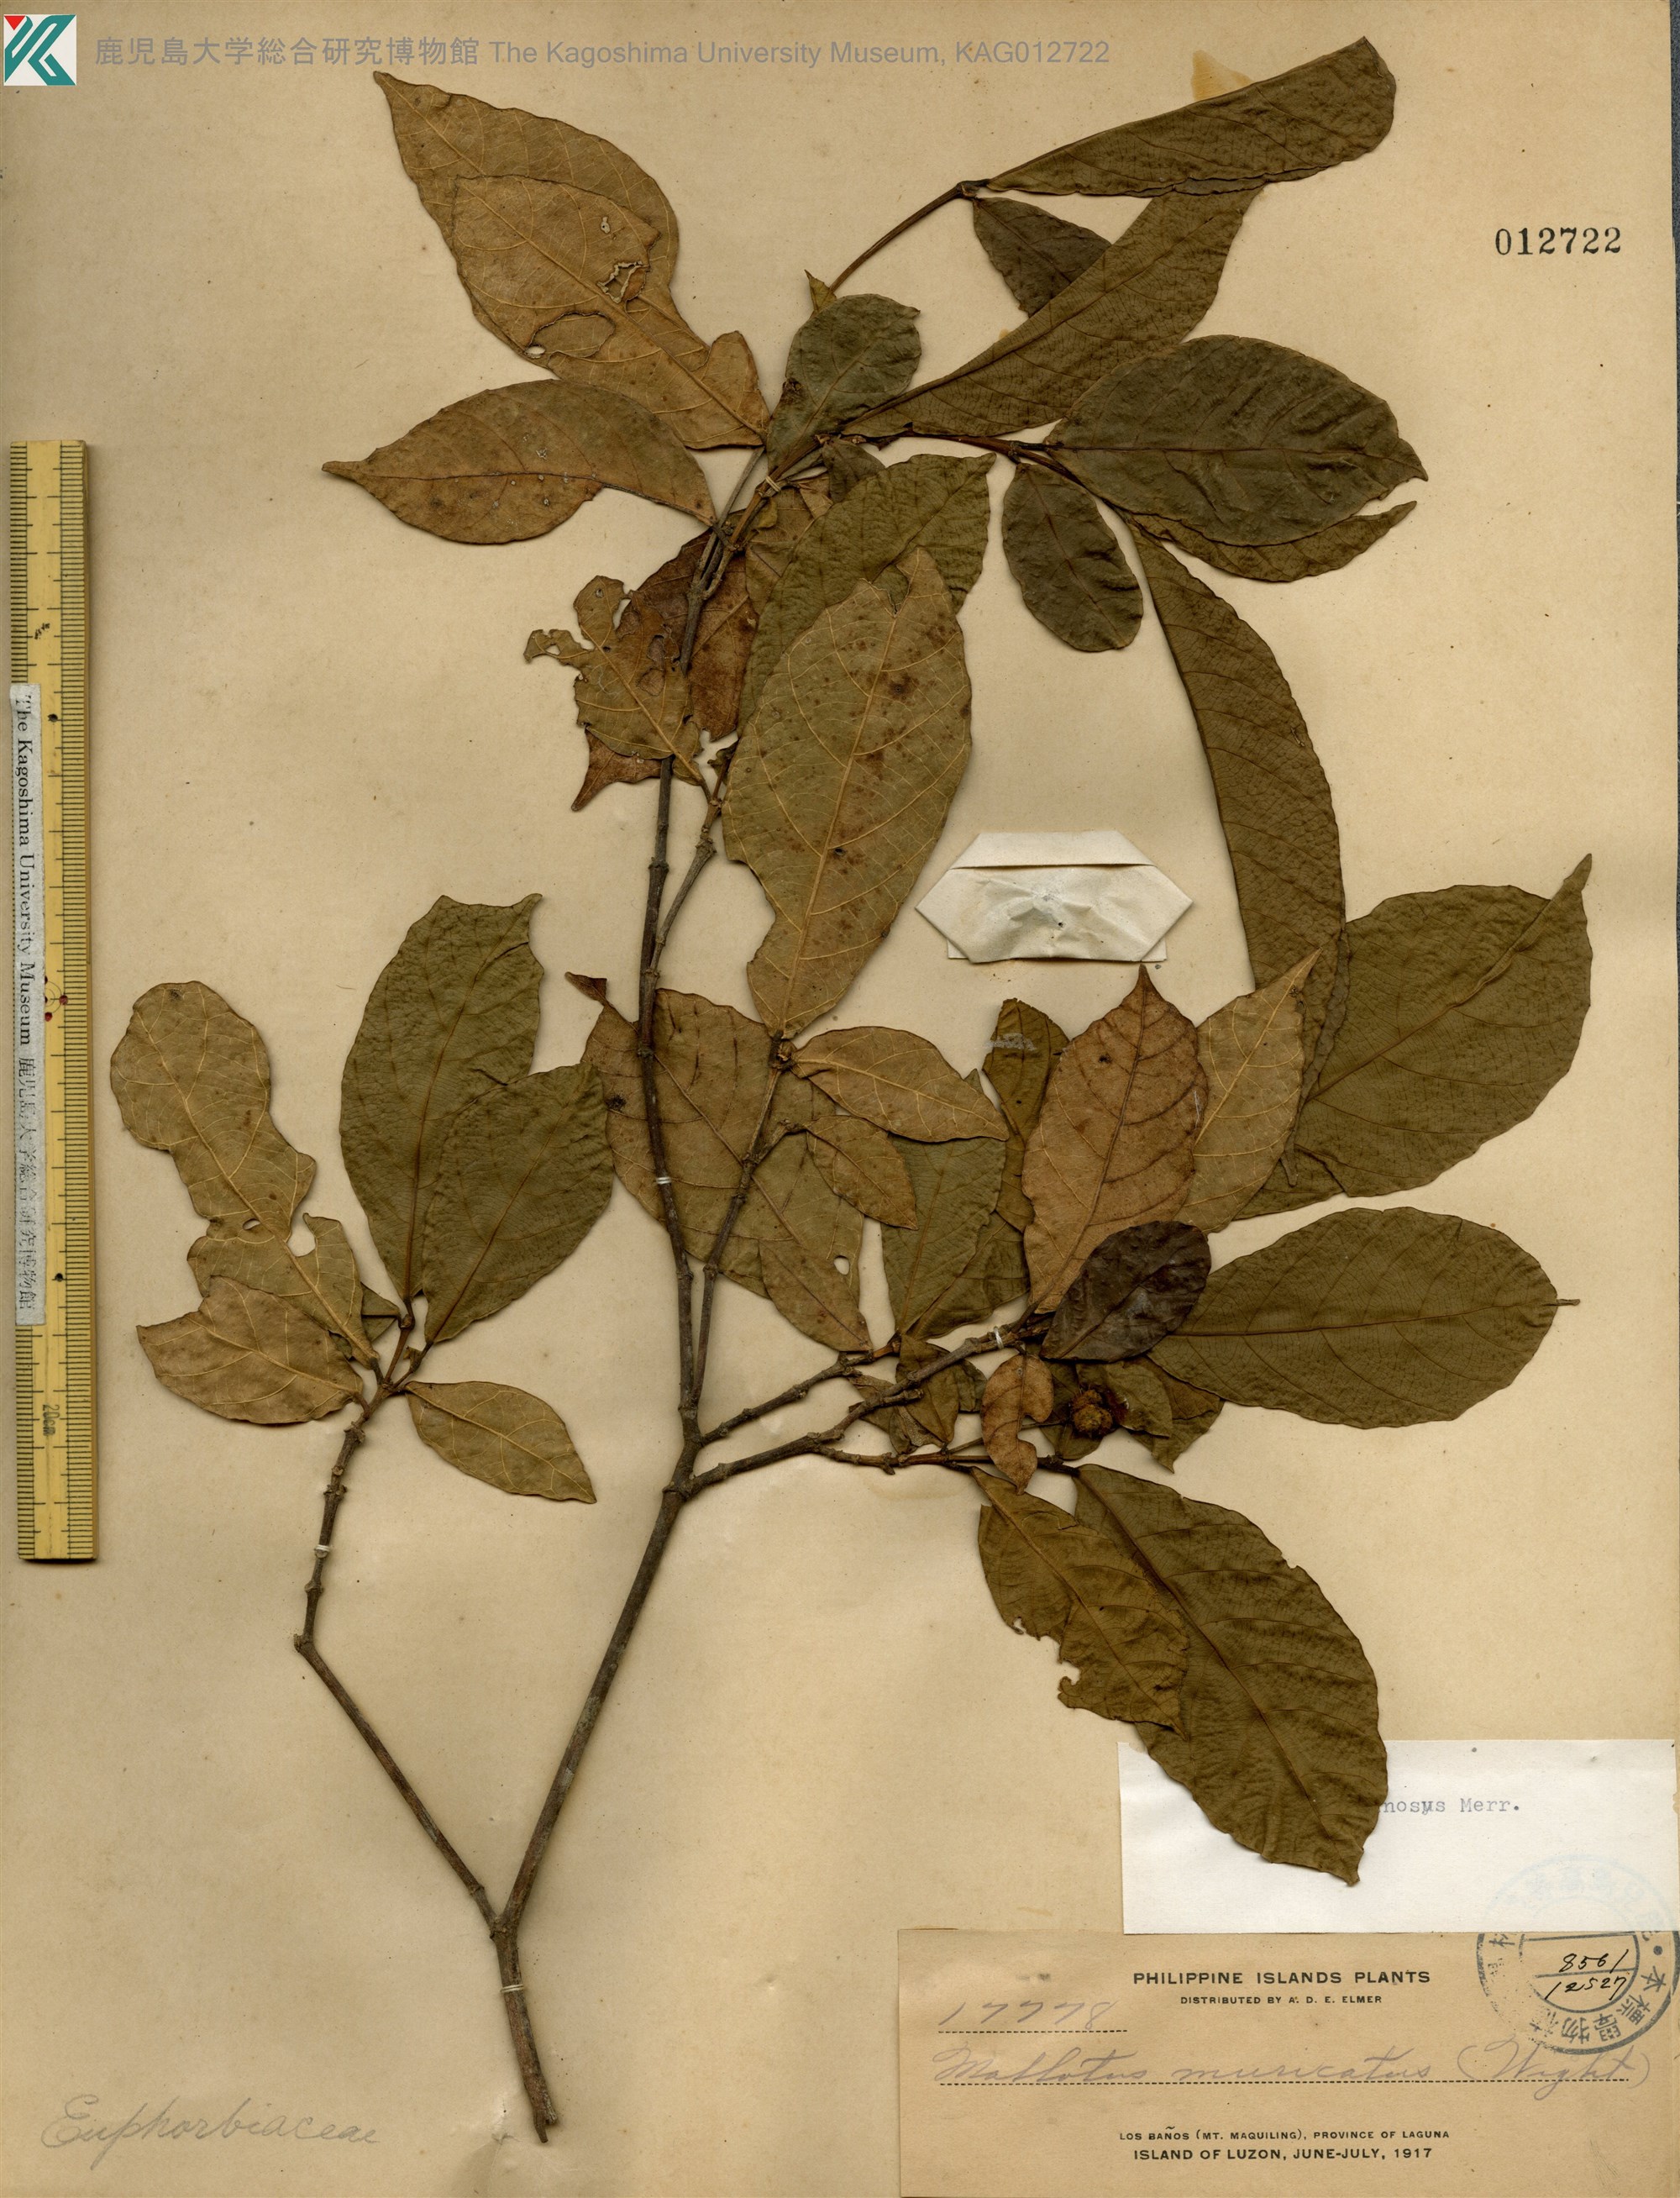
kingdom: Plantae
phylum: Tracheophyta
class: Magnoliopsida
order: Malpighiales
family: Euphorbiaceae
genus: Mallotus
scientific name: Mallotus resinosus
